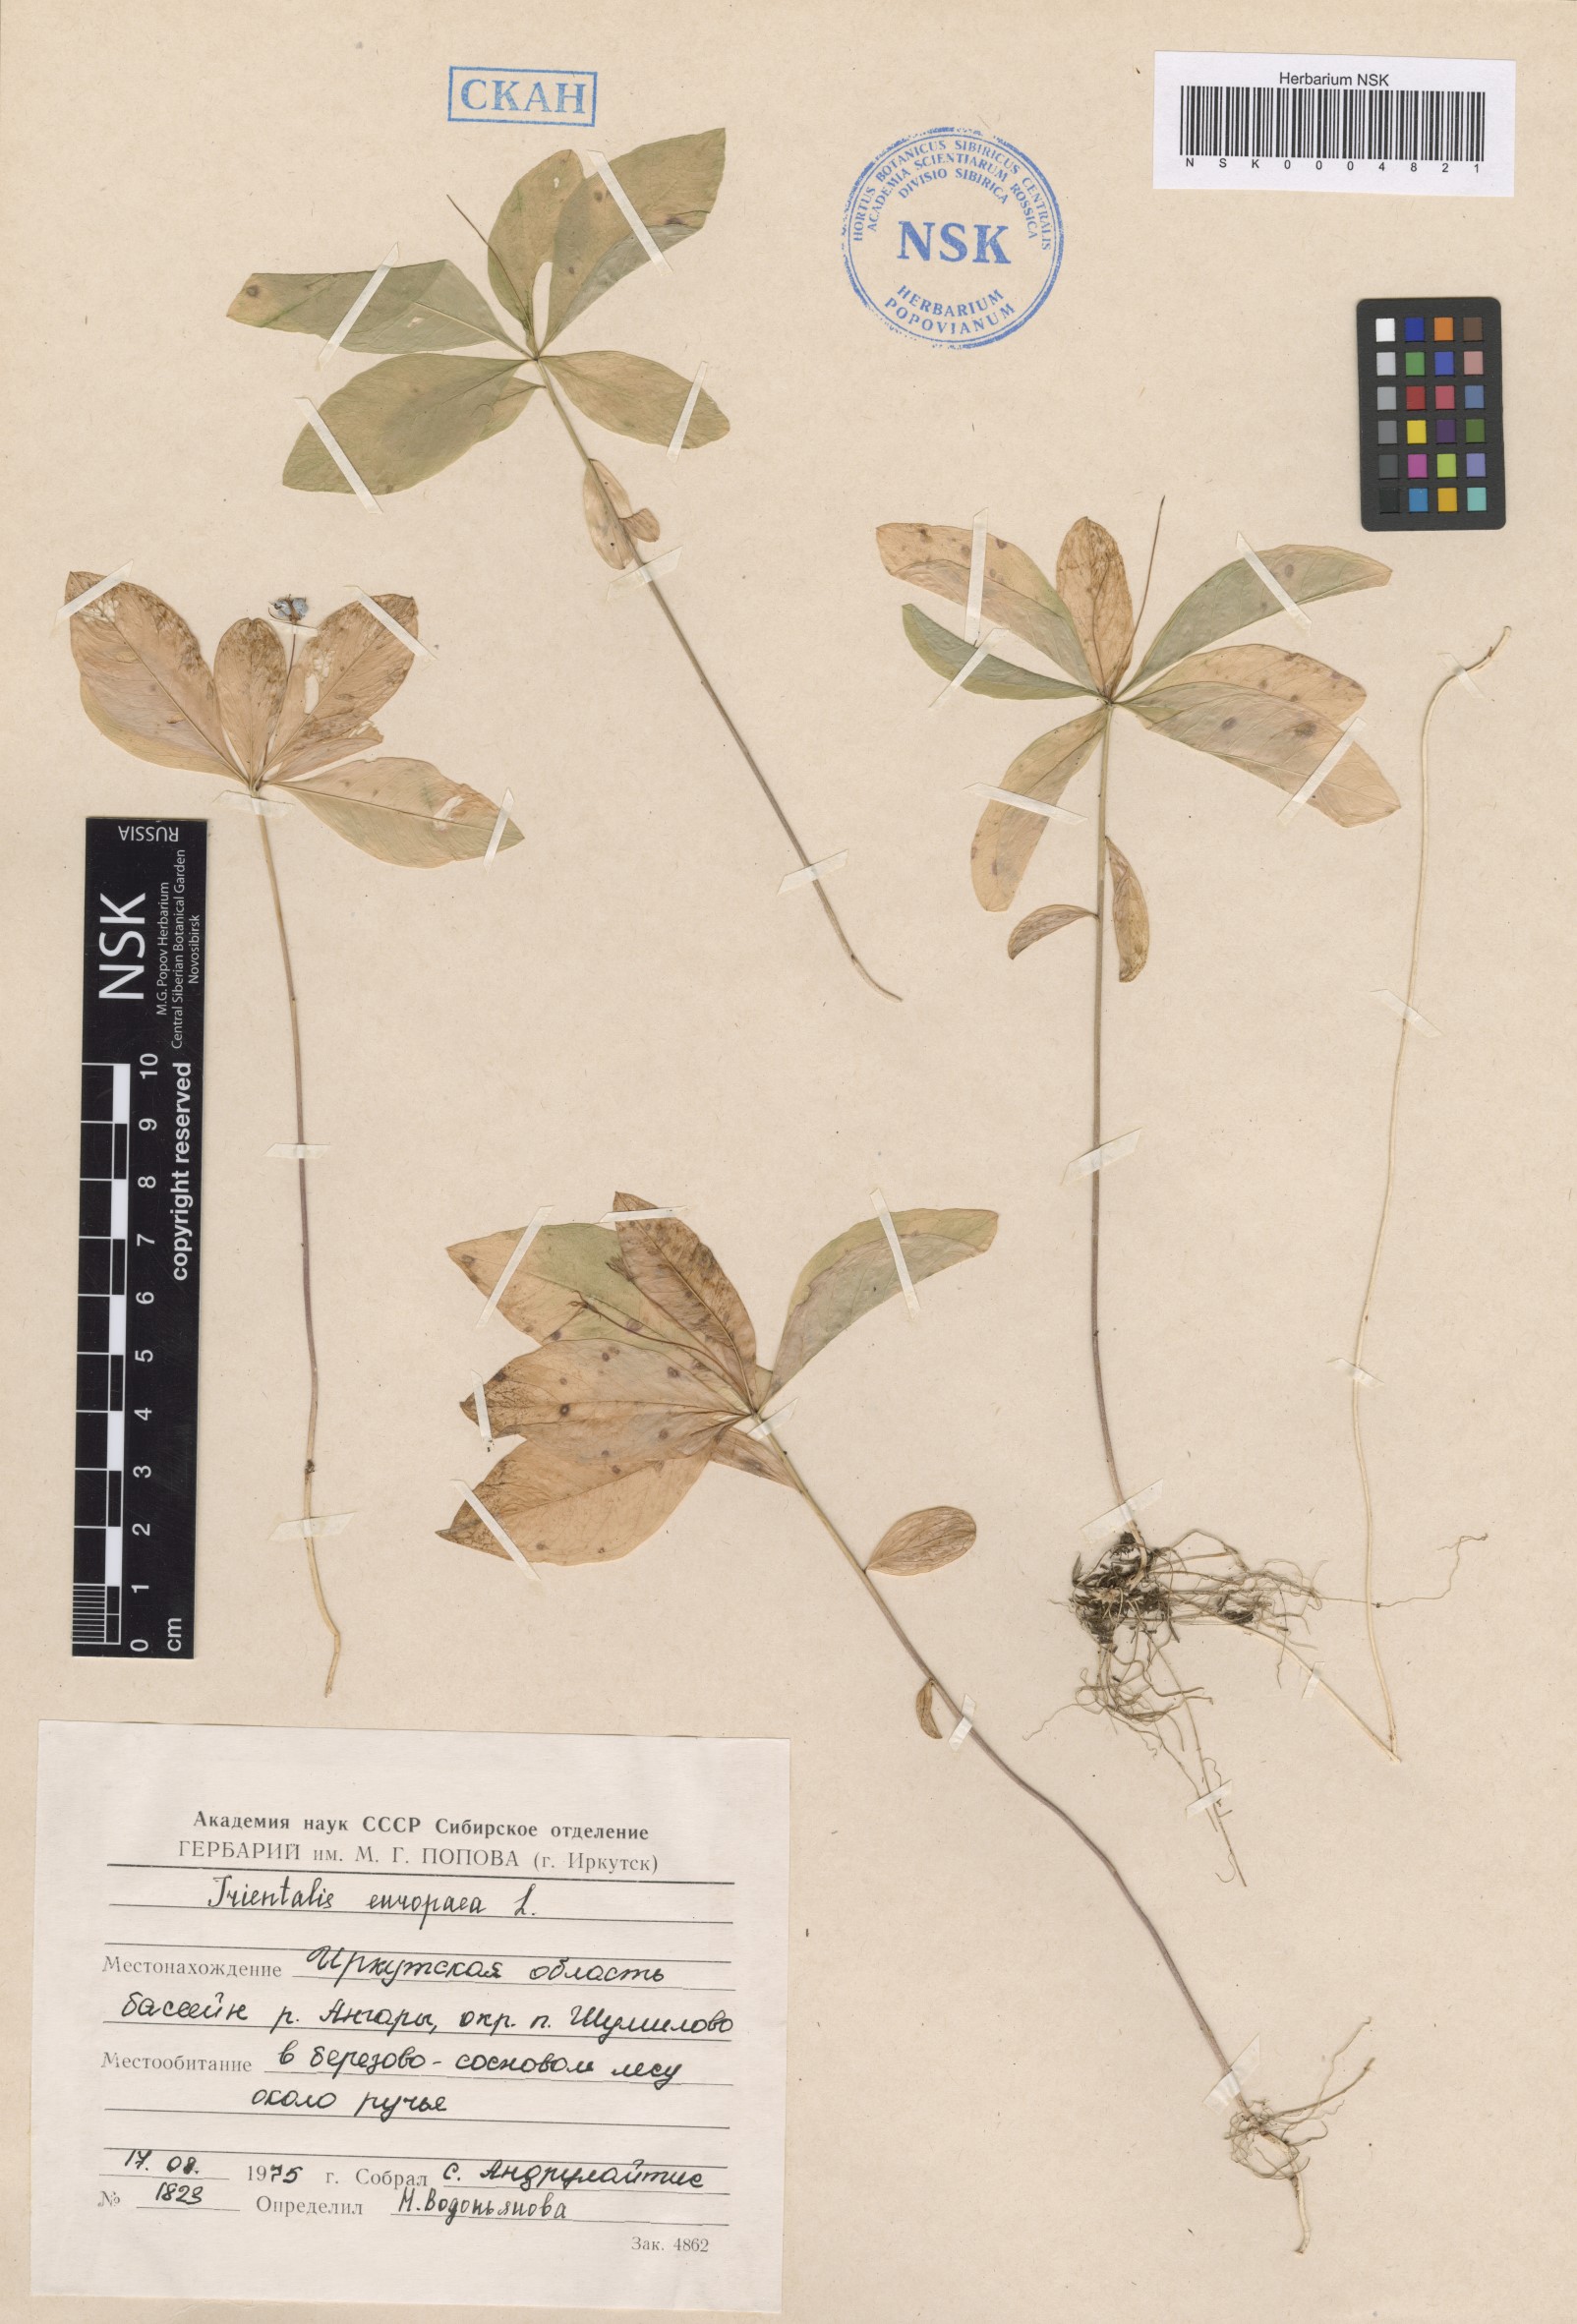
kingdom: Plantae
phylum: Tracheophyta
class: Magnoliopsida
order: Ericales
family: Primulaceae
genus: Lysimachia
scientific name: Lysimachia europaea
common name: Arctic starflower
